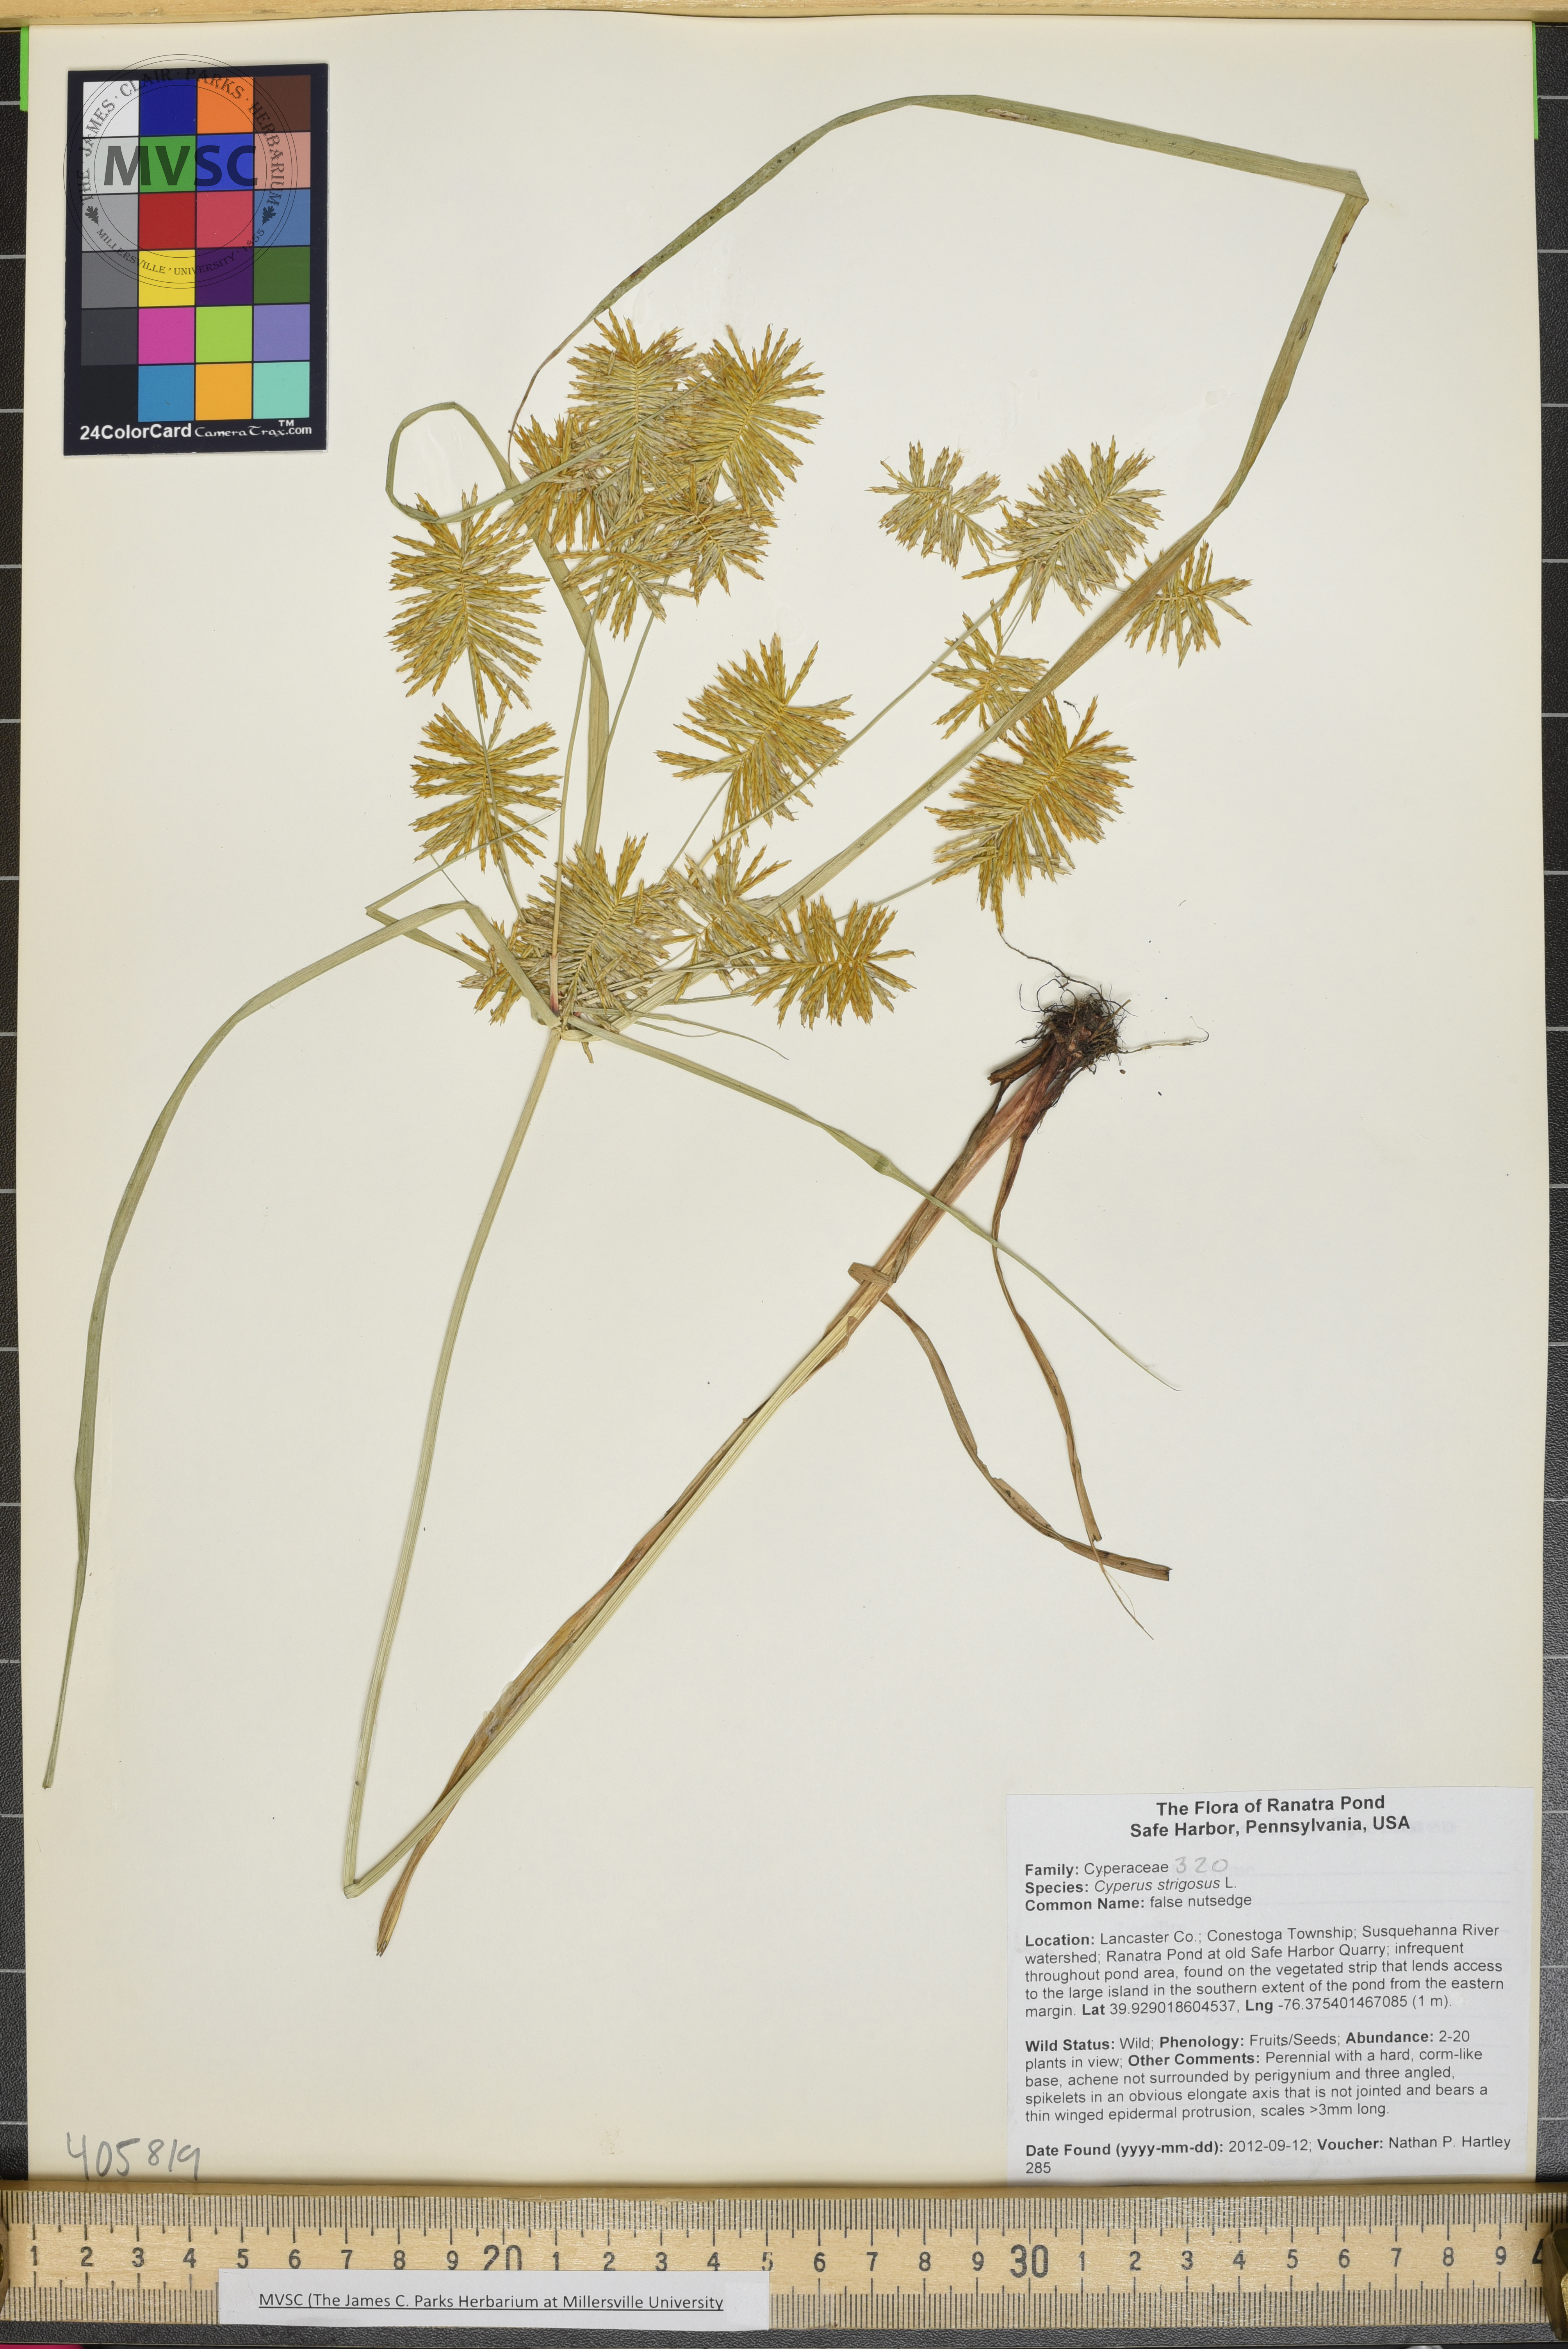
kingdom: Plantae
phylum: Tracheophyta
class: Liliopsida
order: Poales
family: Cyperaceae
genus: Cyperus
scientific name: Cyperus strigosus
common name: false nutsedge
